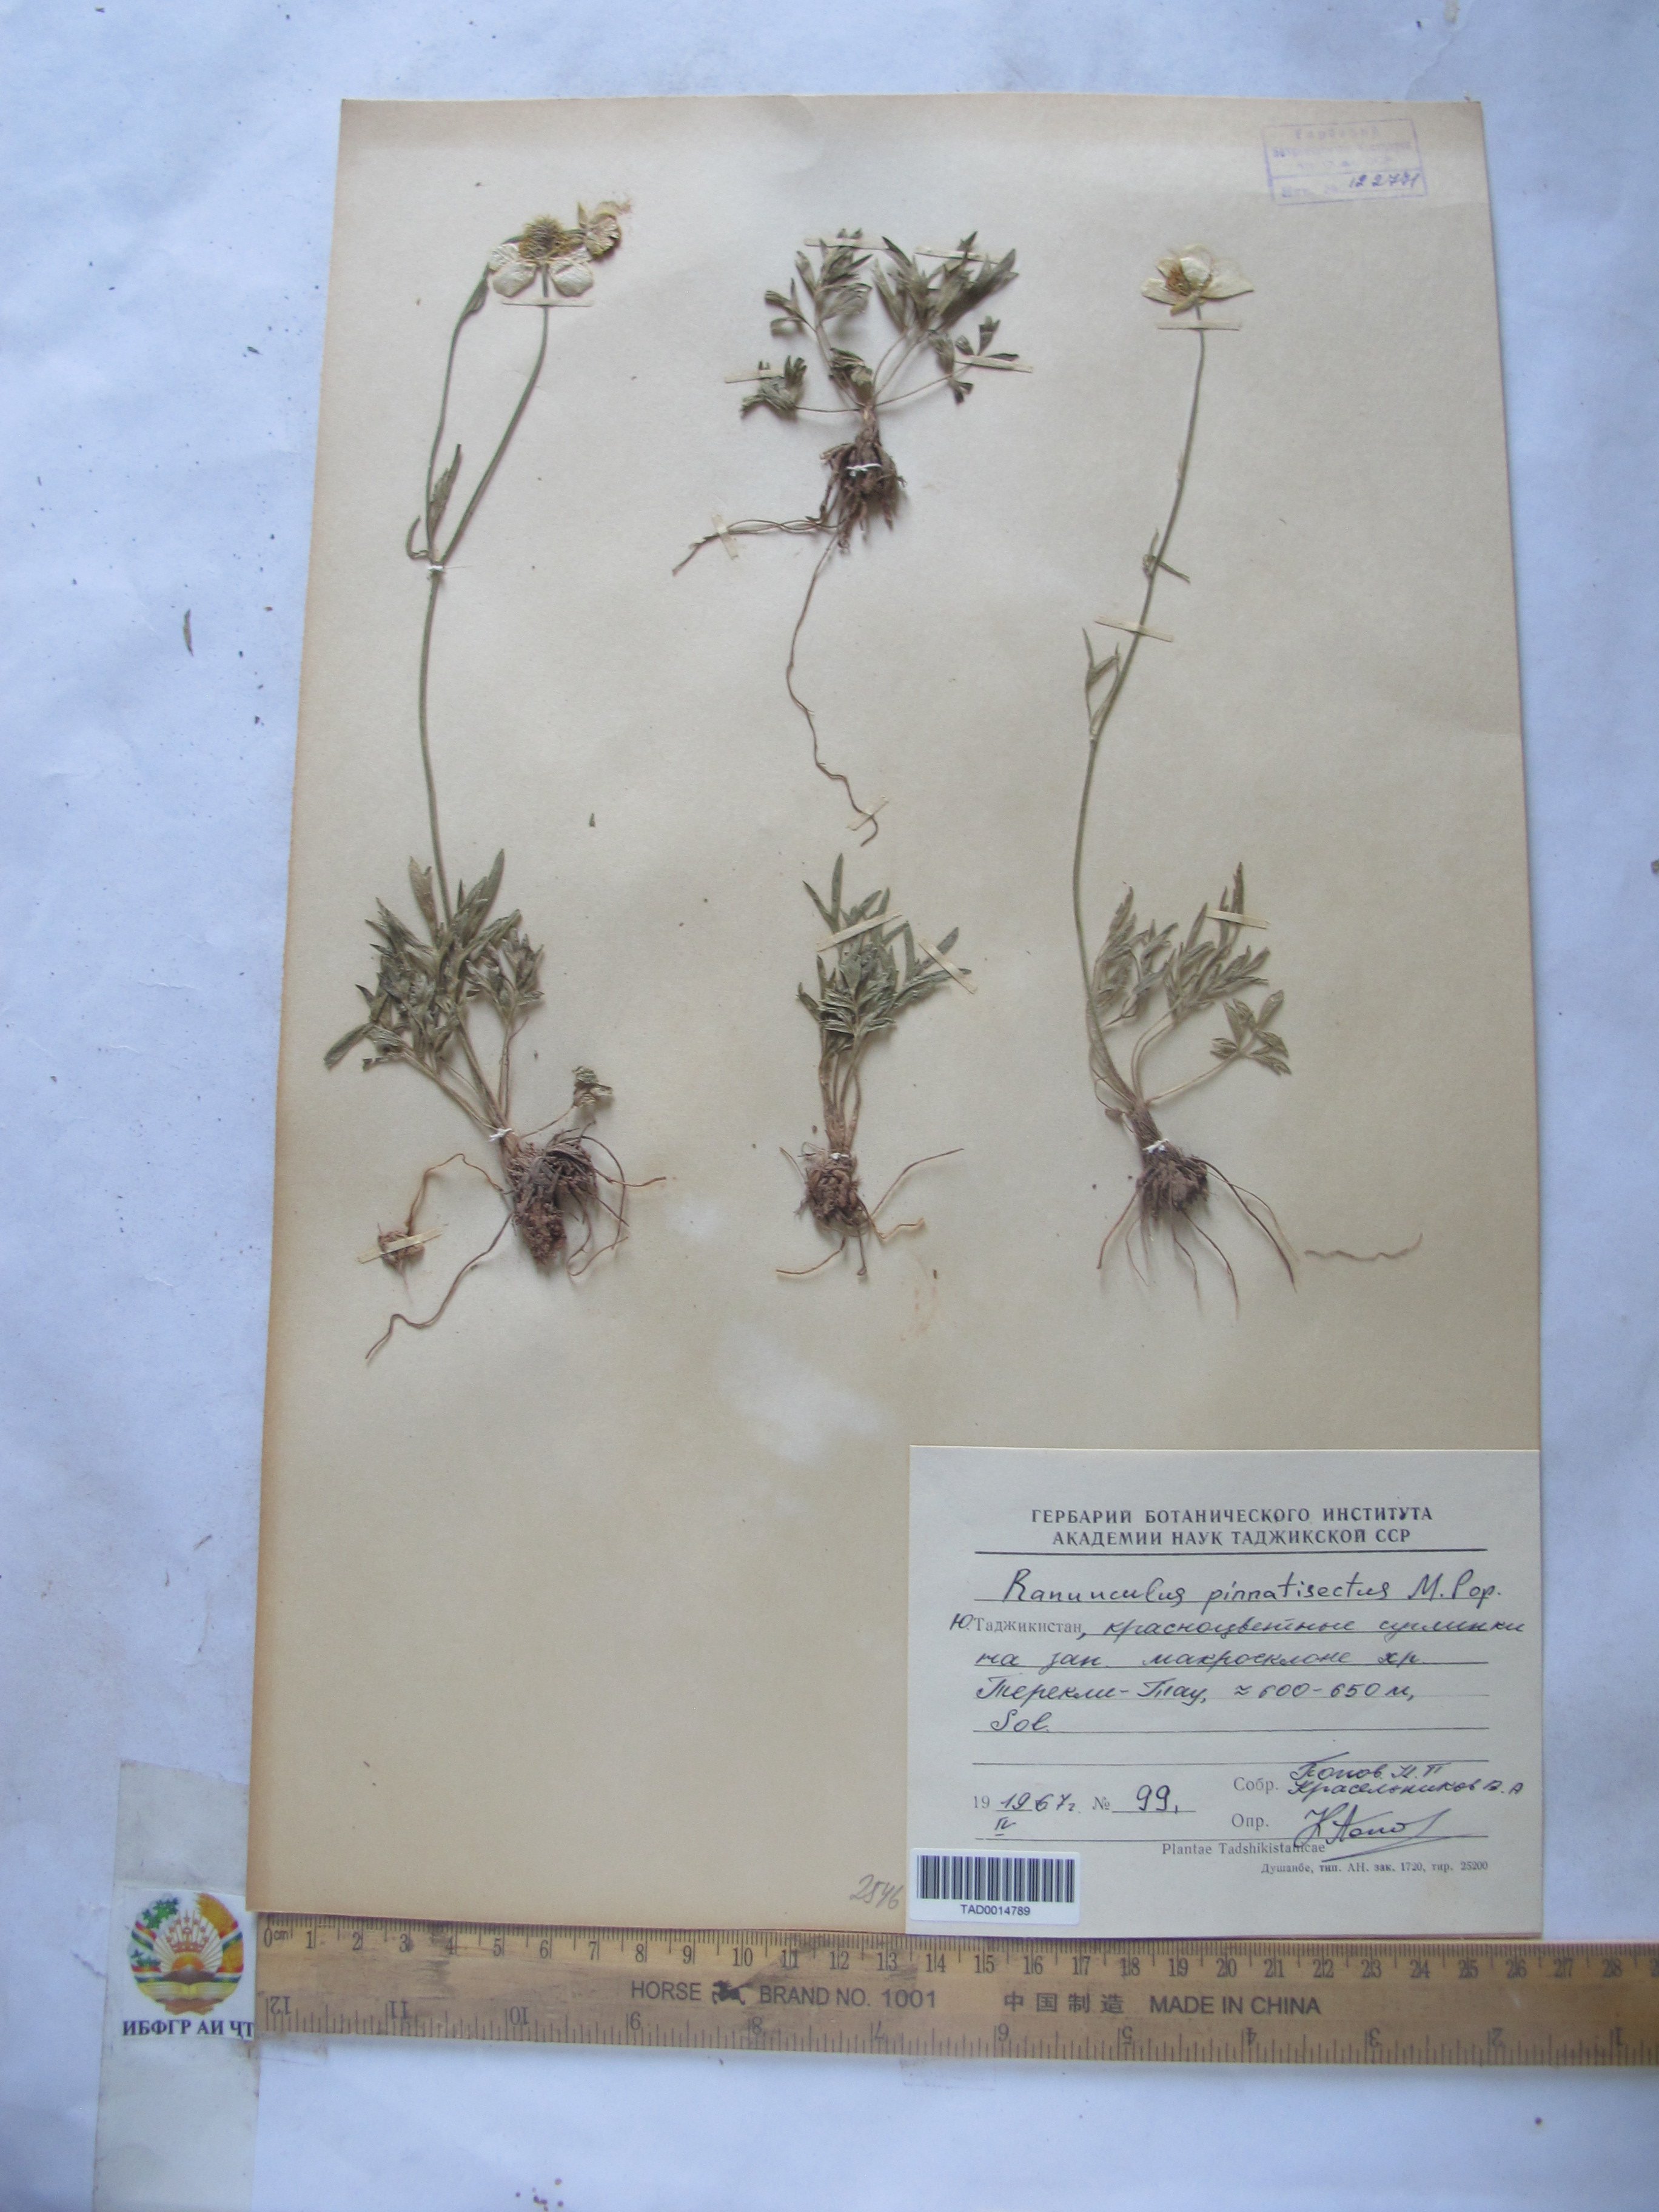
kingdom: Plantae
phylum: Tracheophyta
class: Magnoliopsida
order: Ranunculales
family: Ranunculaceae
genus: Ranunculus
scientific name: Ranunculus pinnatisectus
